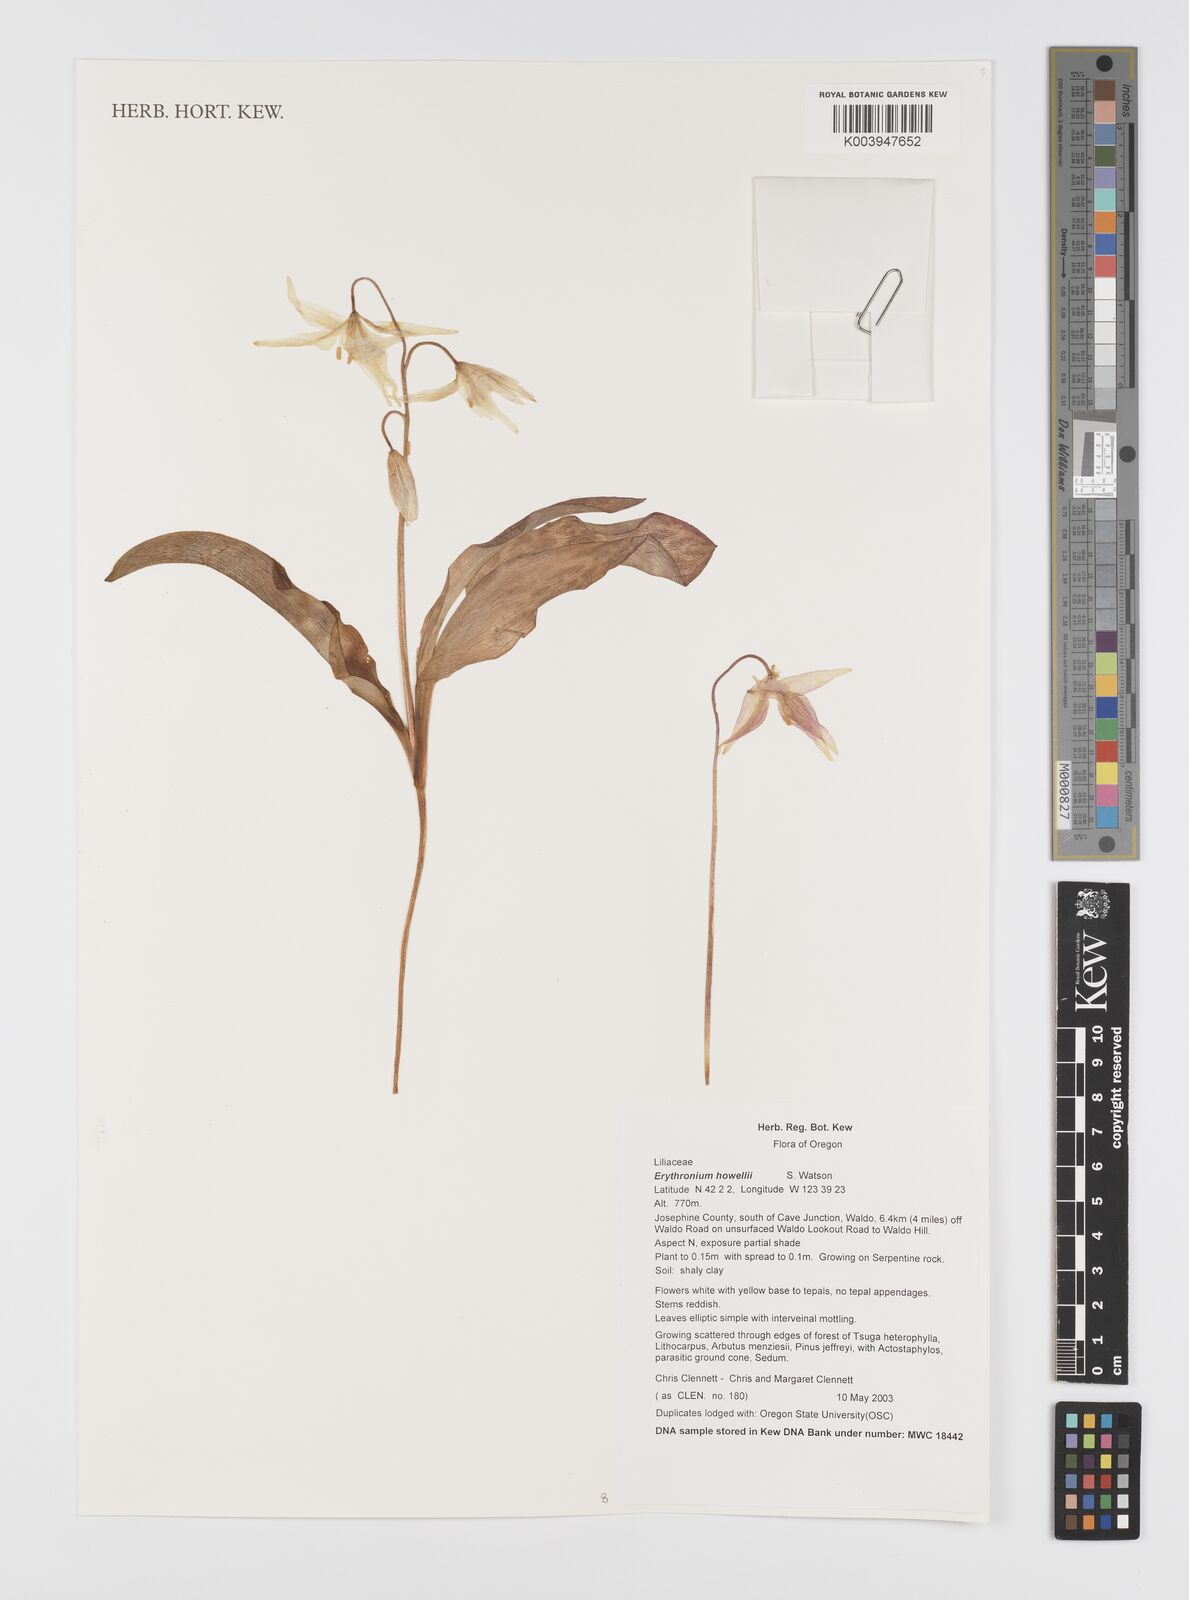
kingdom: Plantae
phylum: Tracheophyta
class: Liliopsida
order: Liliales
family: Liliaceae
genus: Erythronium
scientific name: Erythronium howellii
